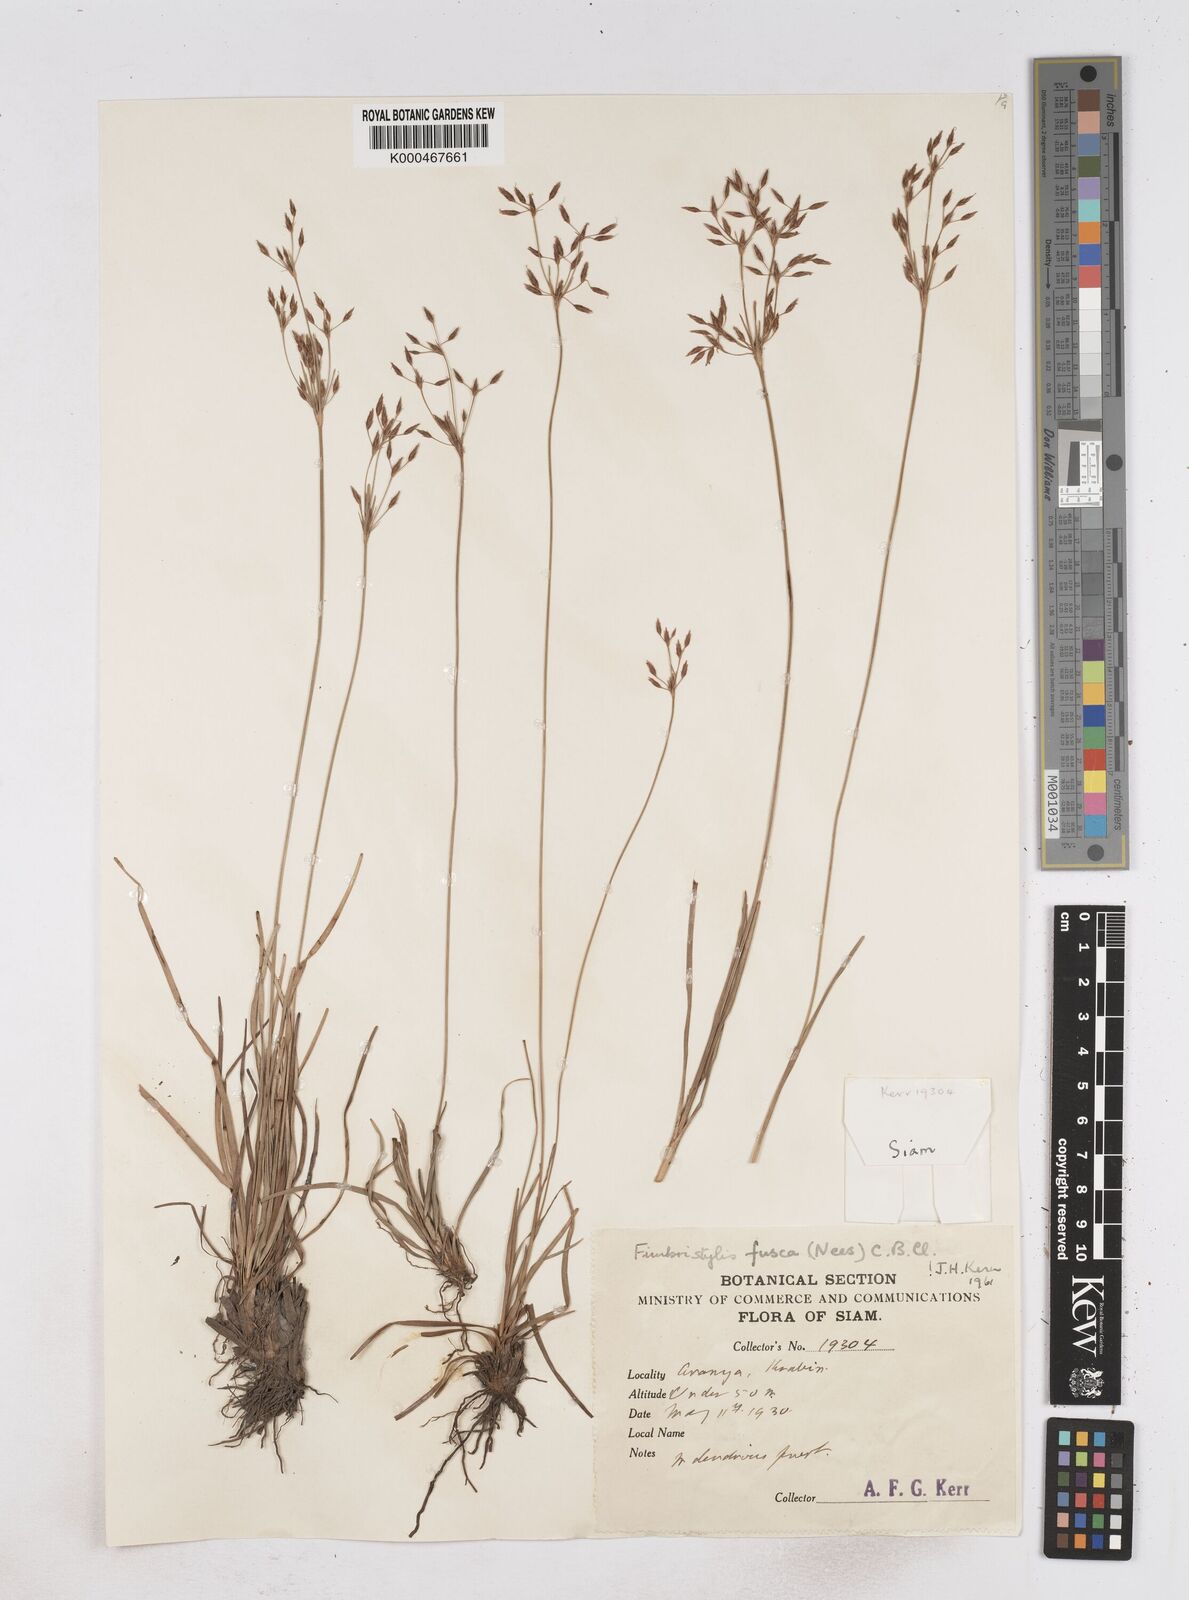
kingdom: Plantae
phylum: Tracheophyta
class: Liliopsida
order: Poales
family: Cyperaceae
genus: Fimbristylis
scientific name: Fimbristylis fusca
